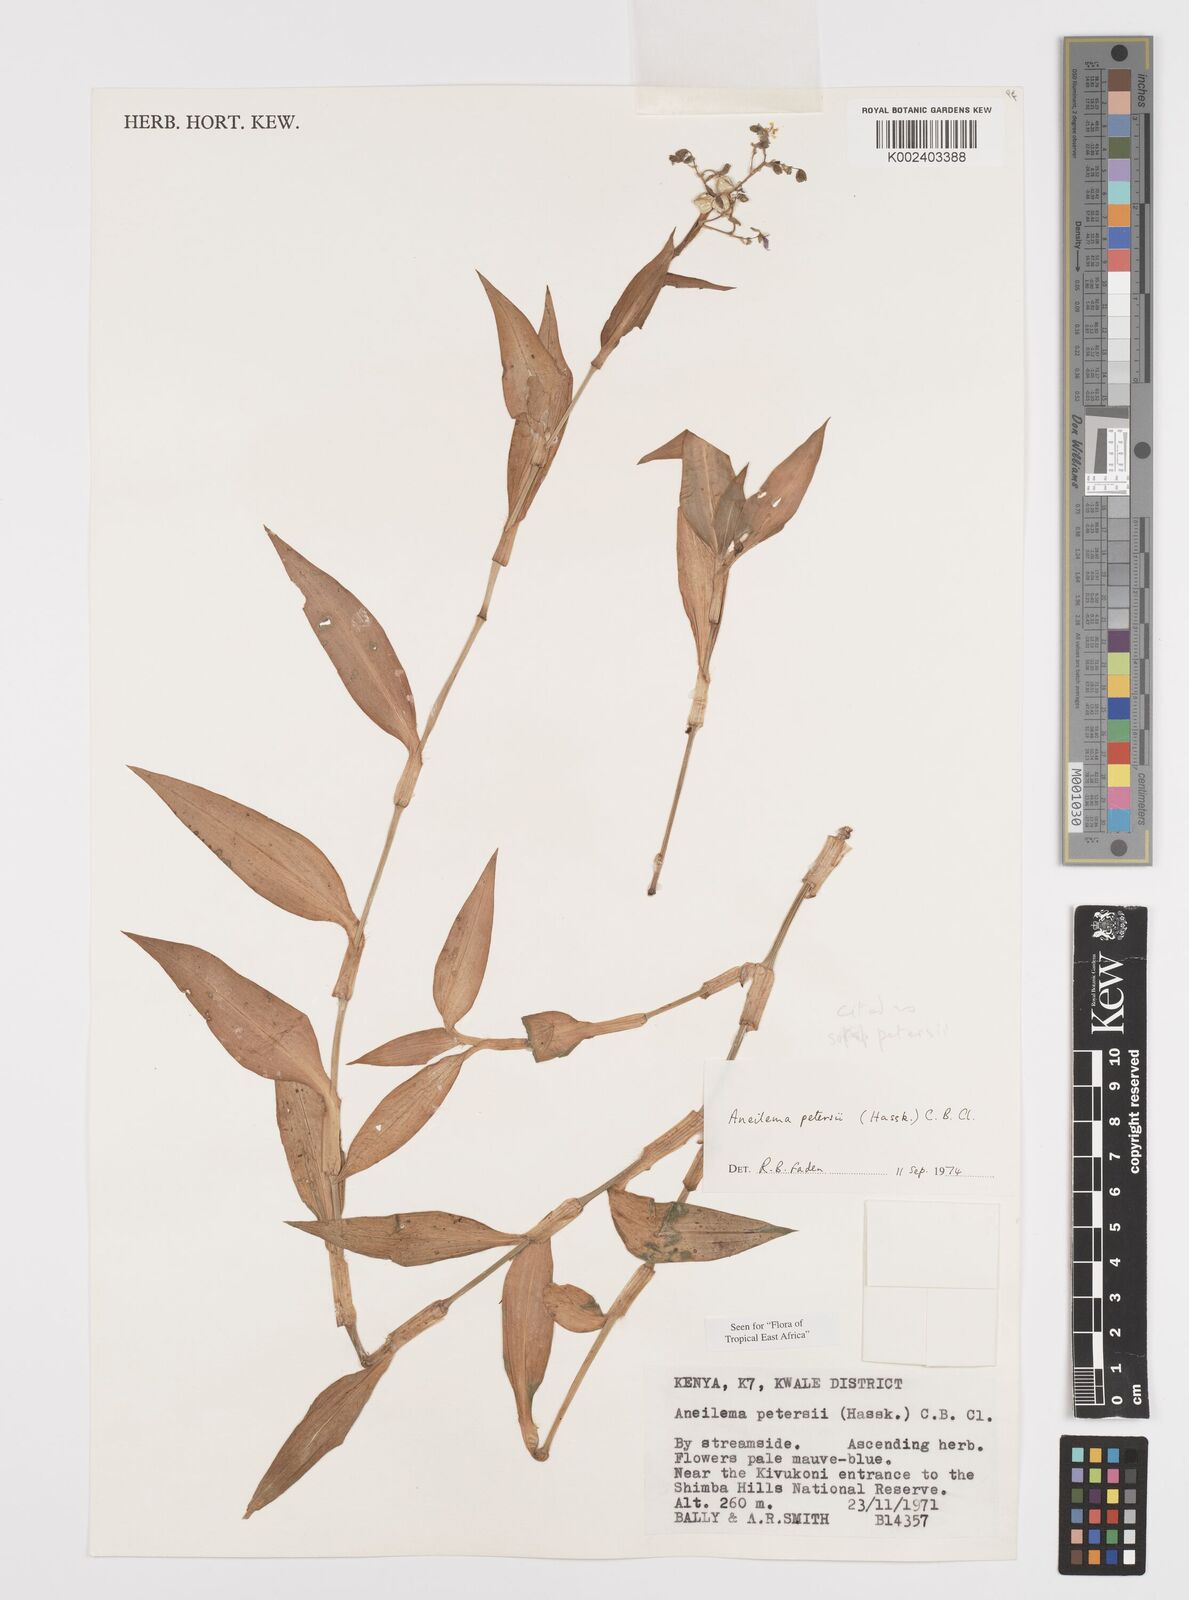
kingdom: Plantae
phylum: Tracheophyta
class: Liliopsida
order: Commelinales
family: Commelinaceae
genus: Aneilema
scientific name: Aneilema petersii
